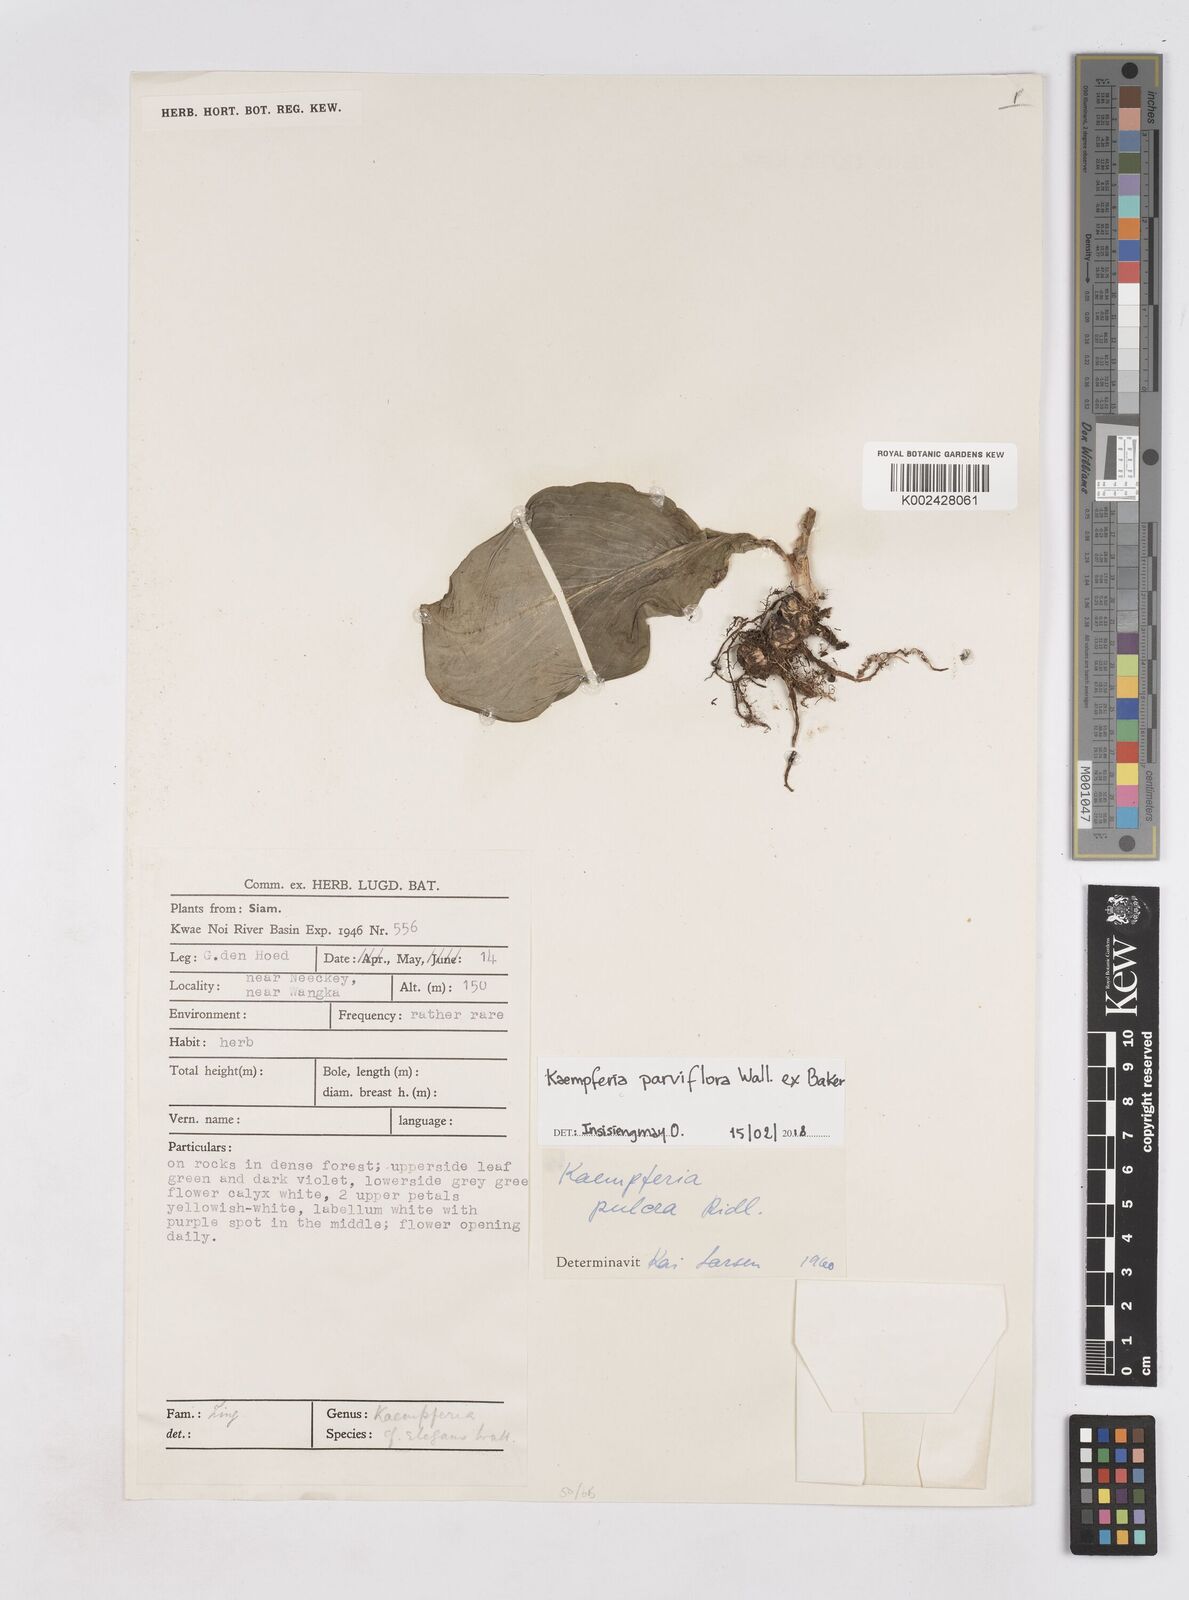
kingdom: Plantae
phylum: Tracheophyta
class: Liliopsida
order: Zingiberales
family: Zingiberaceae
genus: Kaempferia
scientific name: Kaempferia parviflora
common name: Black galingale
